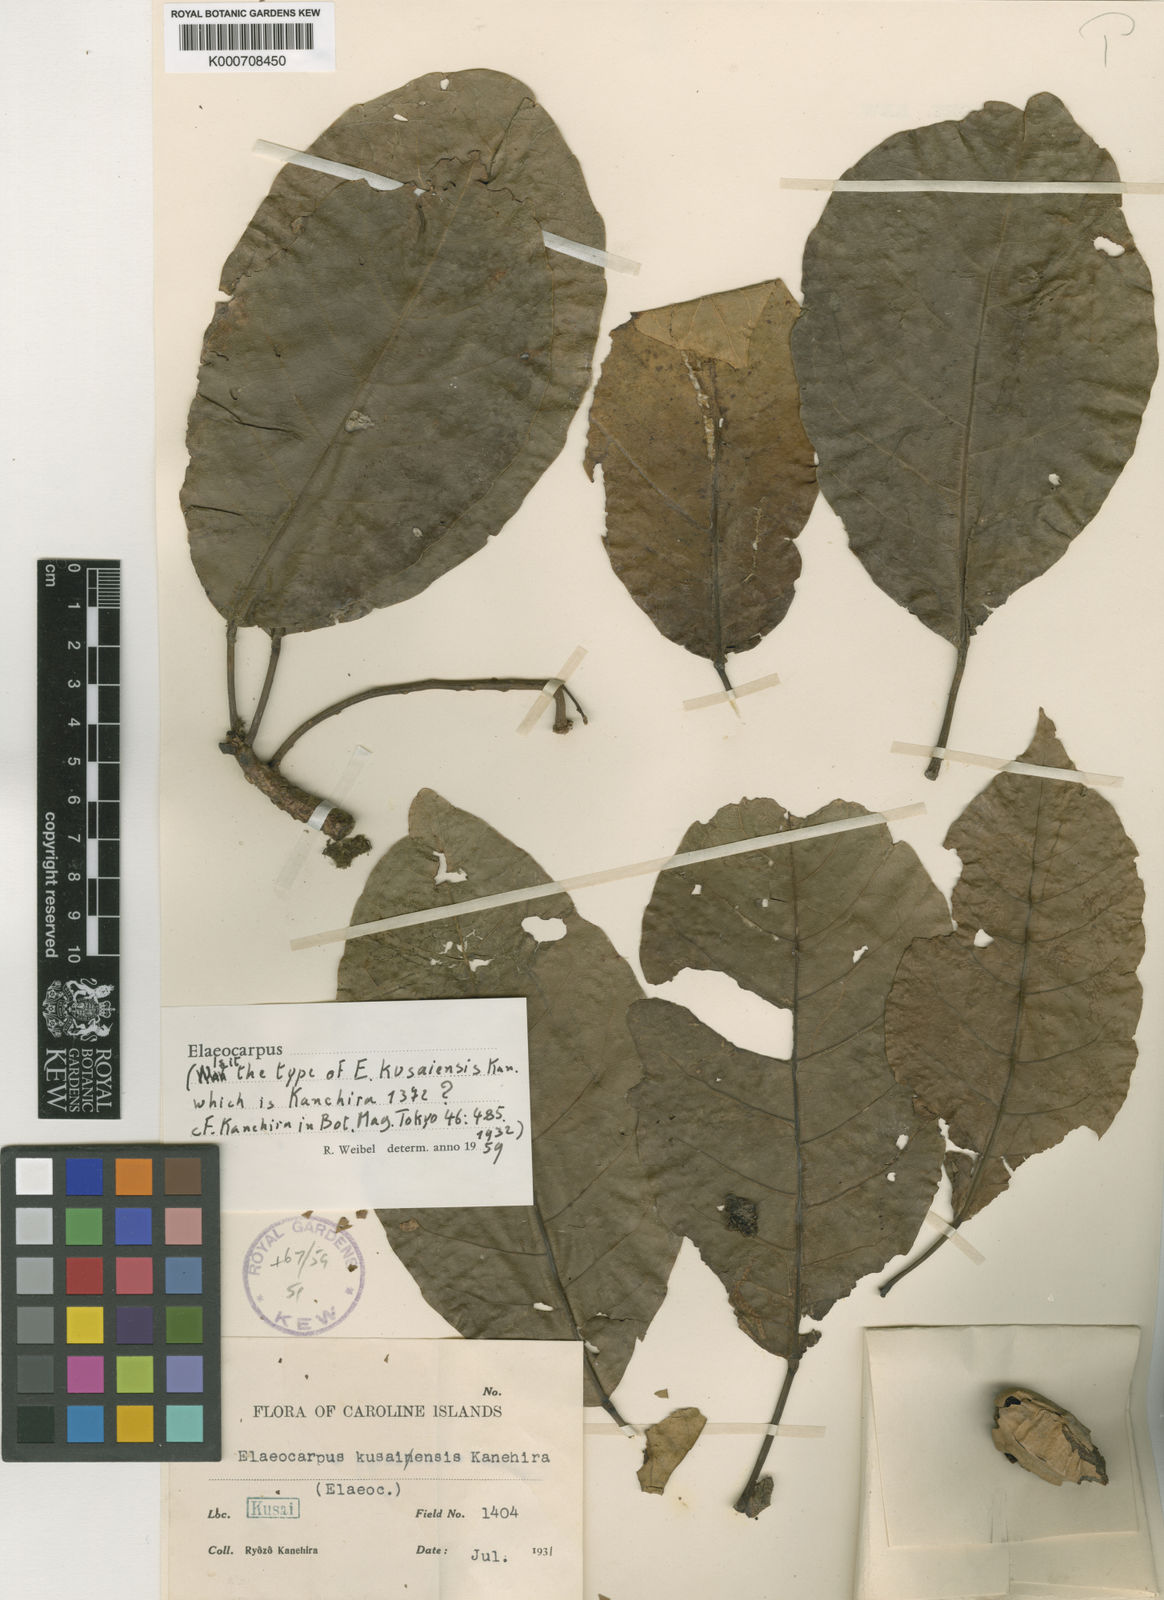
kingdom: Plantae
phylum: Tracheophyta
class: Magnoliopsida
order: Oxalidales
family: Elaeocarpaceae
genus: Elaeocarpus
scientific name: Elaeocarpus kusaiensis
